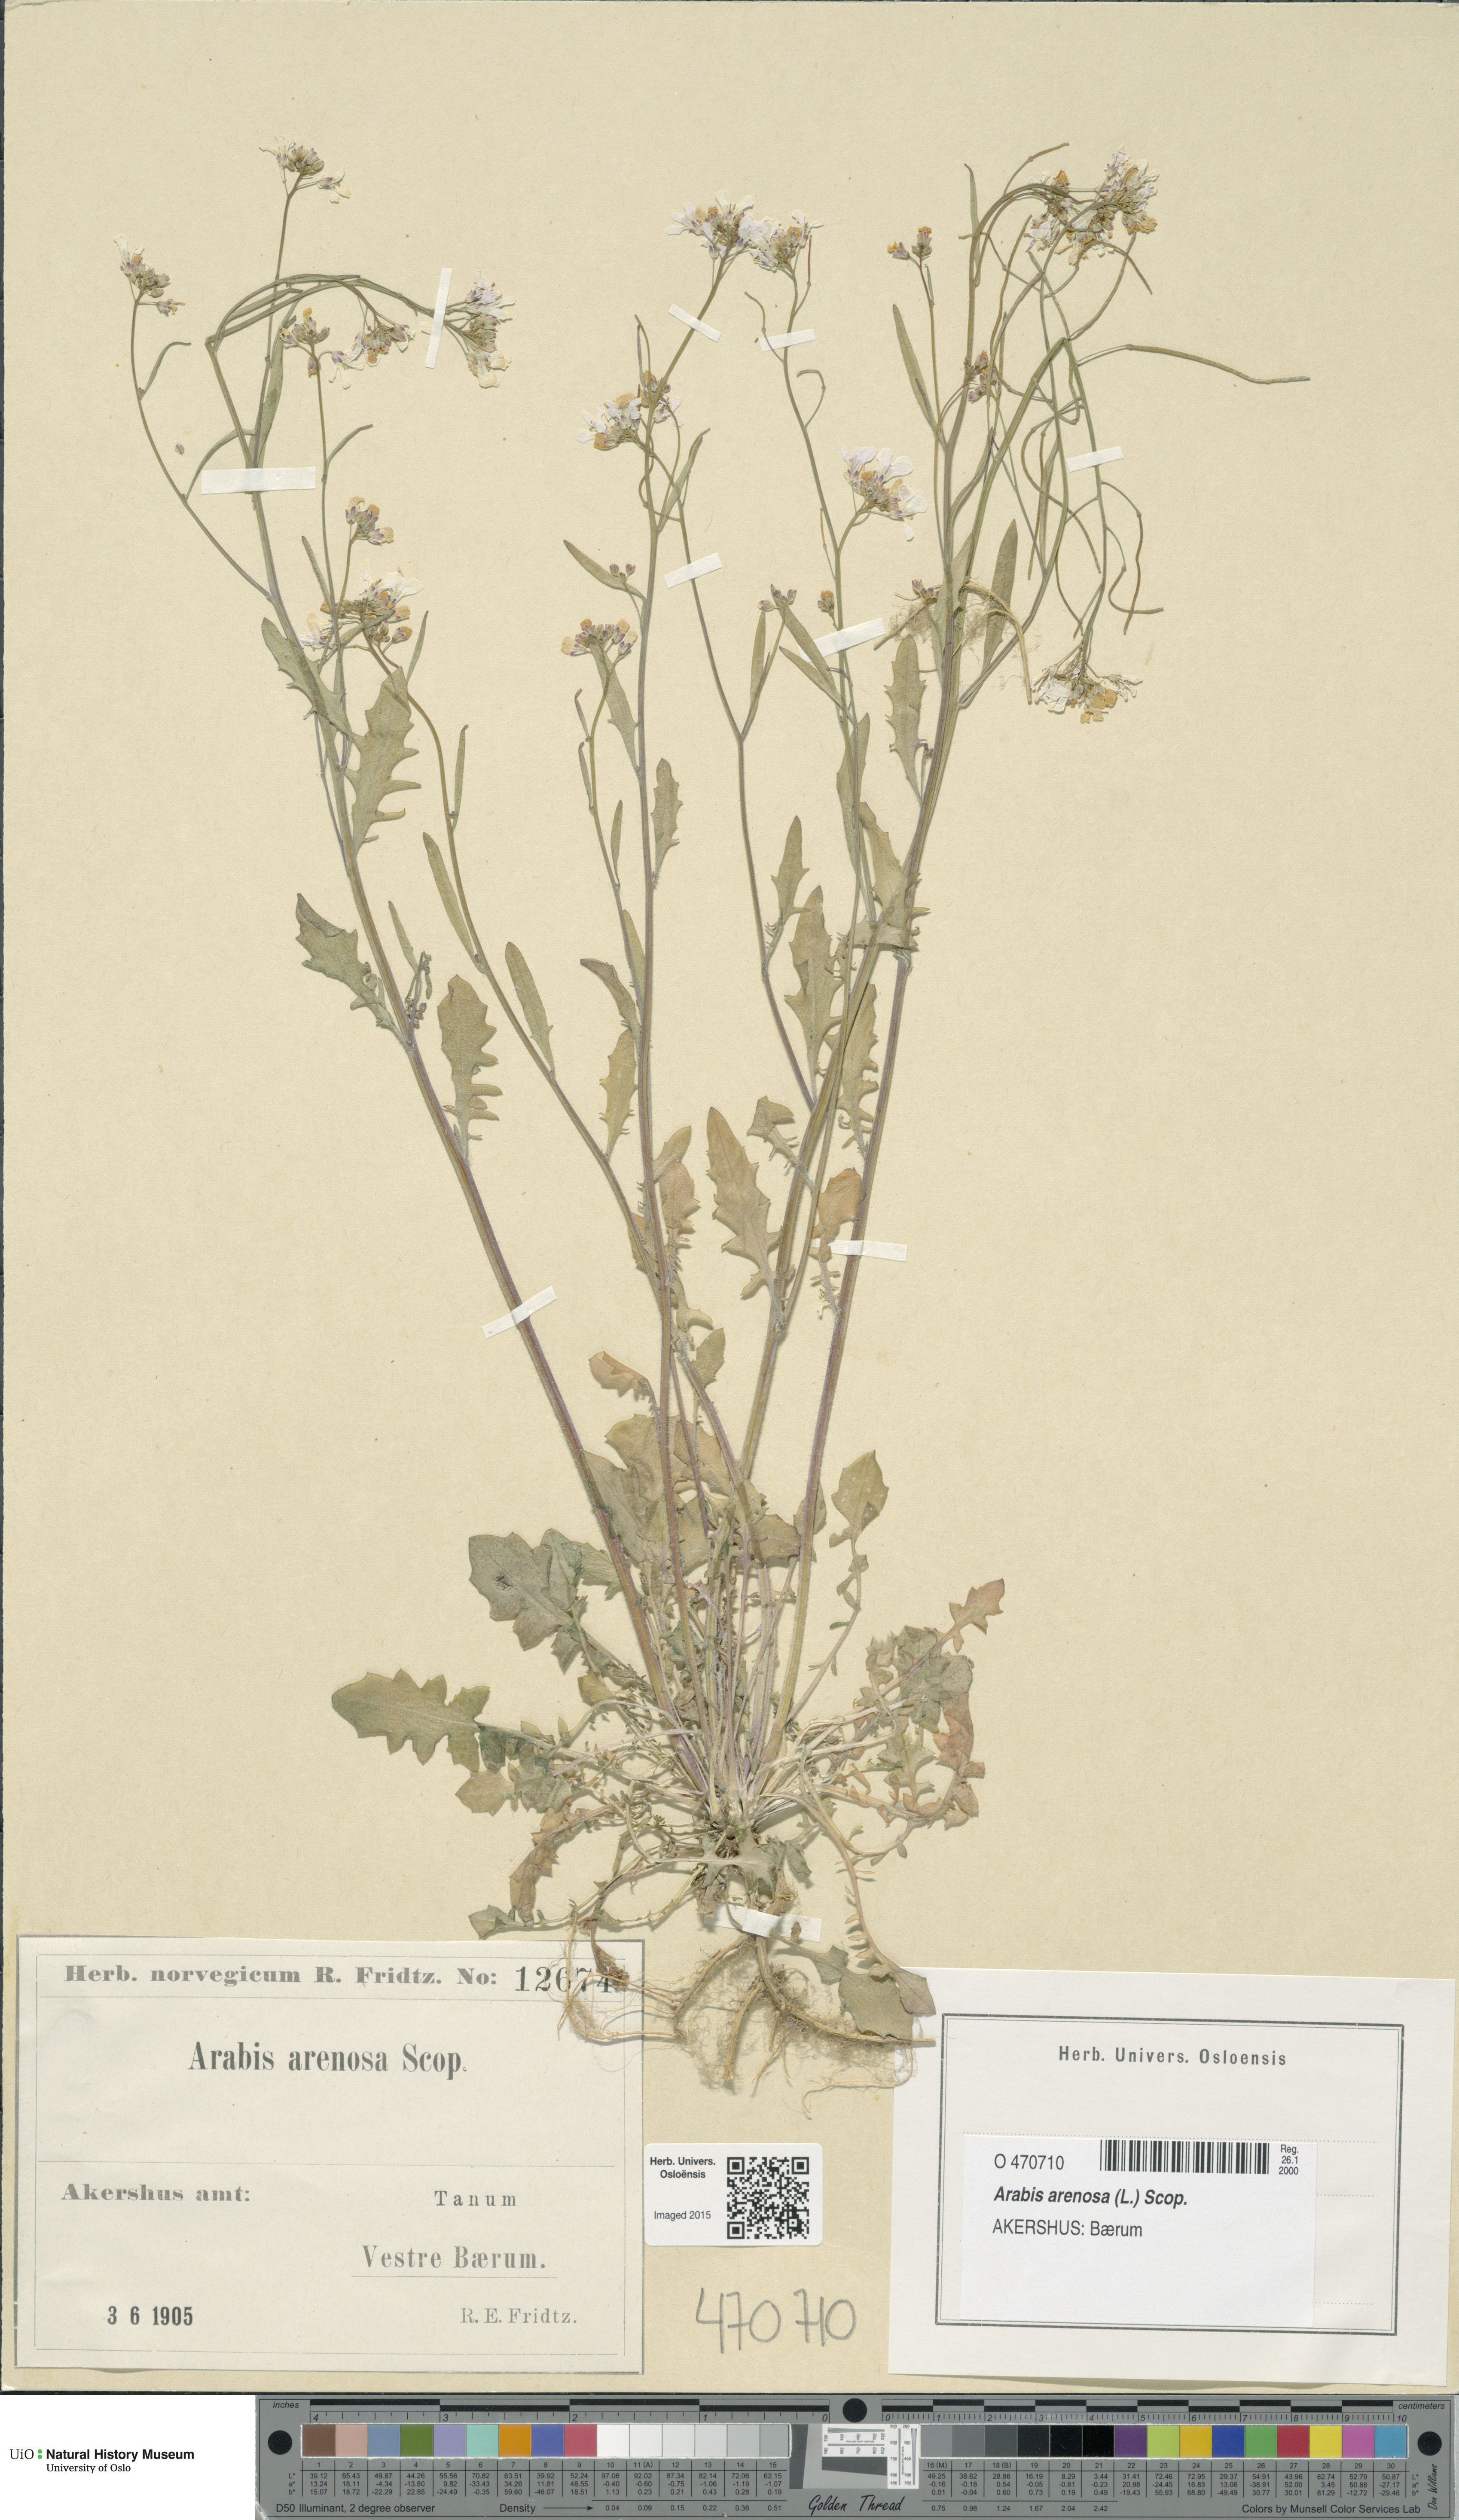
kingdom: Plantae
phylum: Tracheophyta
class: Magnoliopsida
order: Brassicales
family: Brassicaceae
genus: Arabidopsis
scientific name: Arabidopsis arenosa
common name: Sand rock-cress
